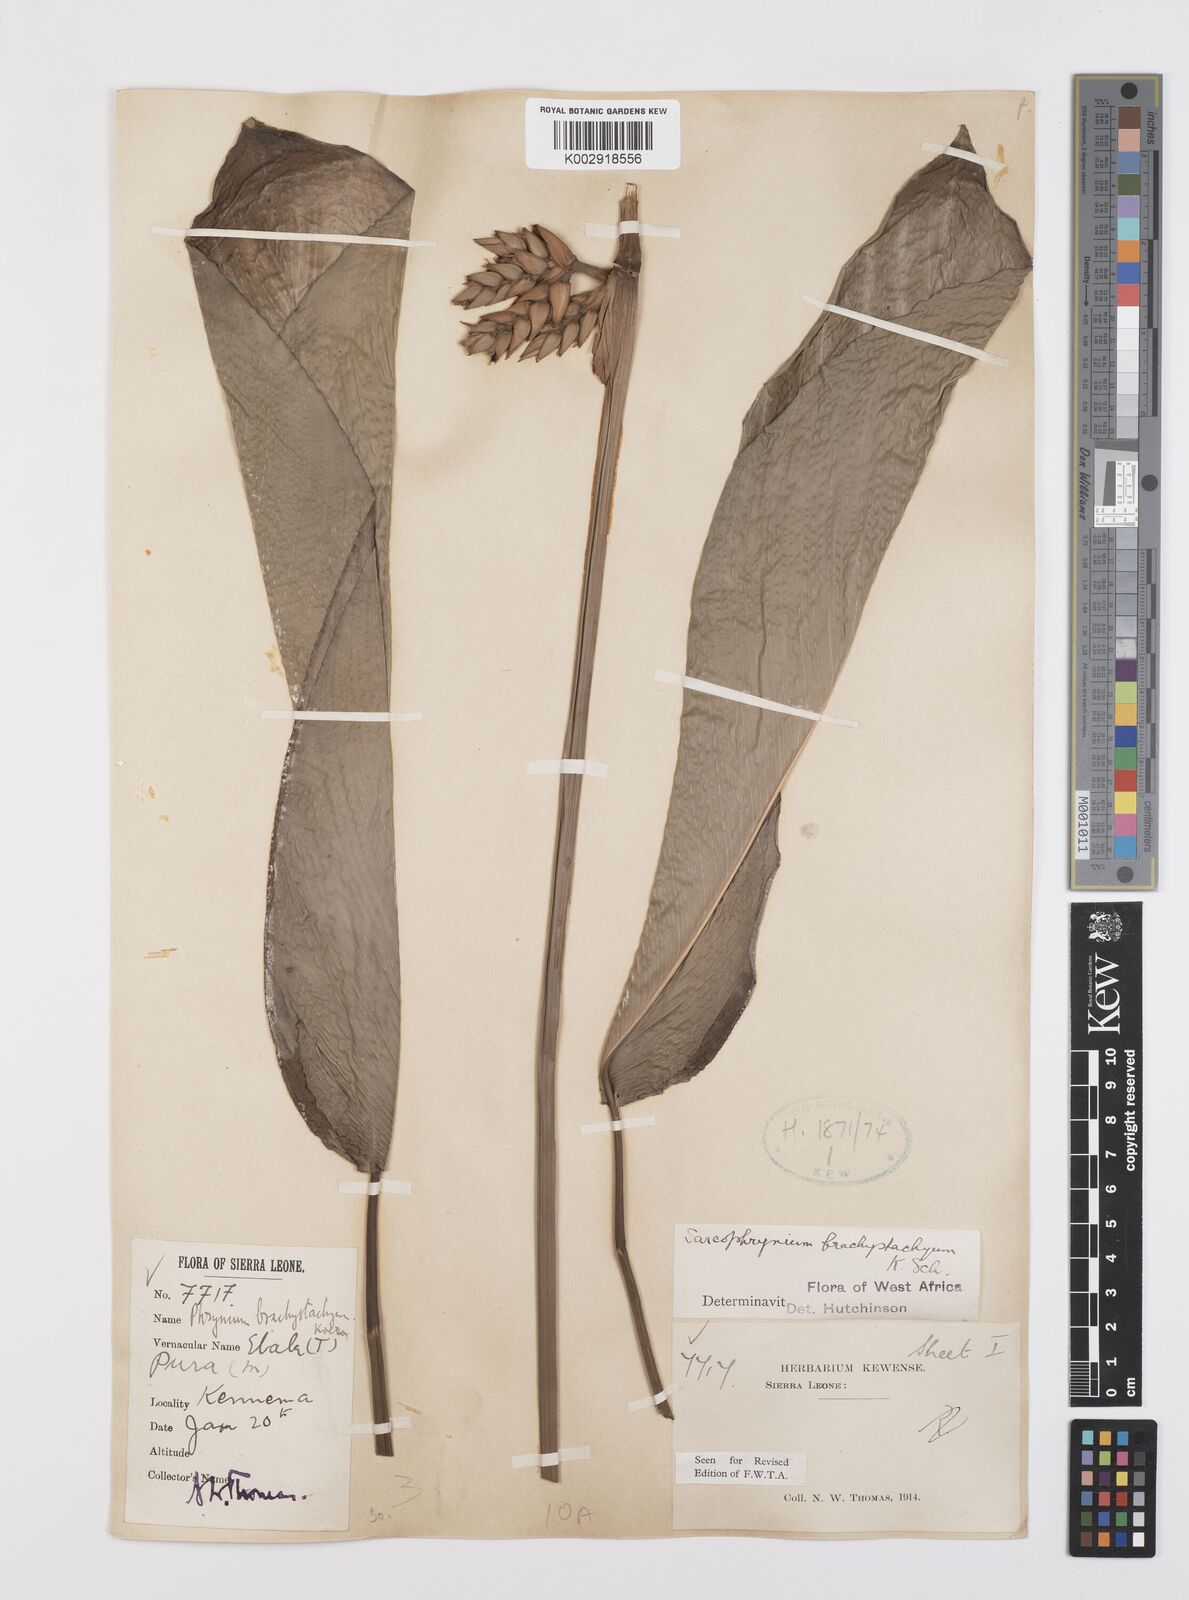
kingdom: Plantae
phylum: Tracheophyta
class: Liliopsida
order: Zingiberales
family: Marantaceae
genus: Sarcophrynium
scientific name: Sarcophrynium brachystachyum
